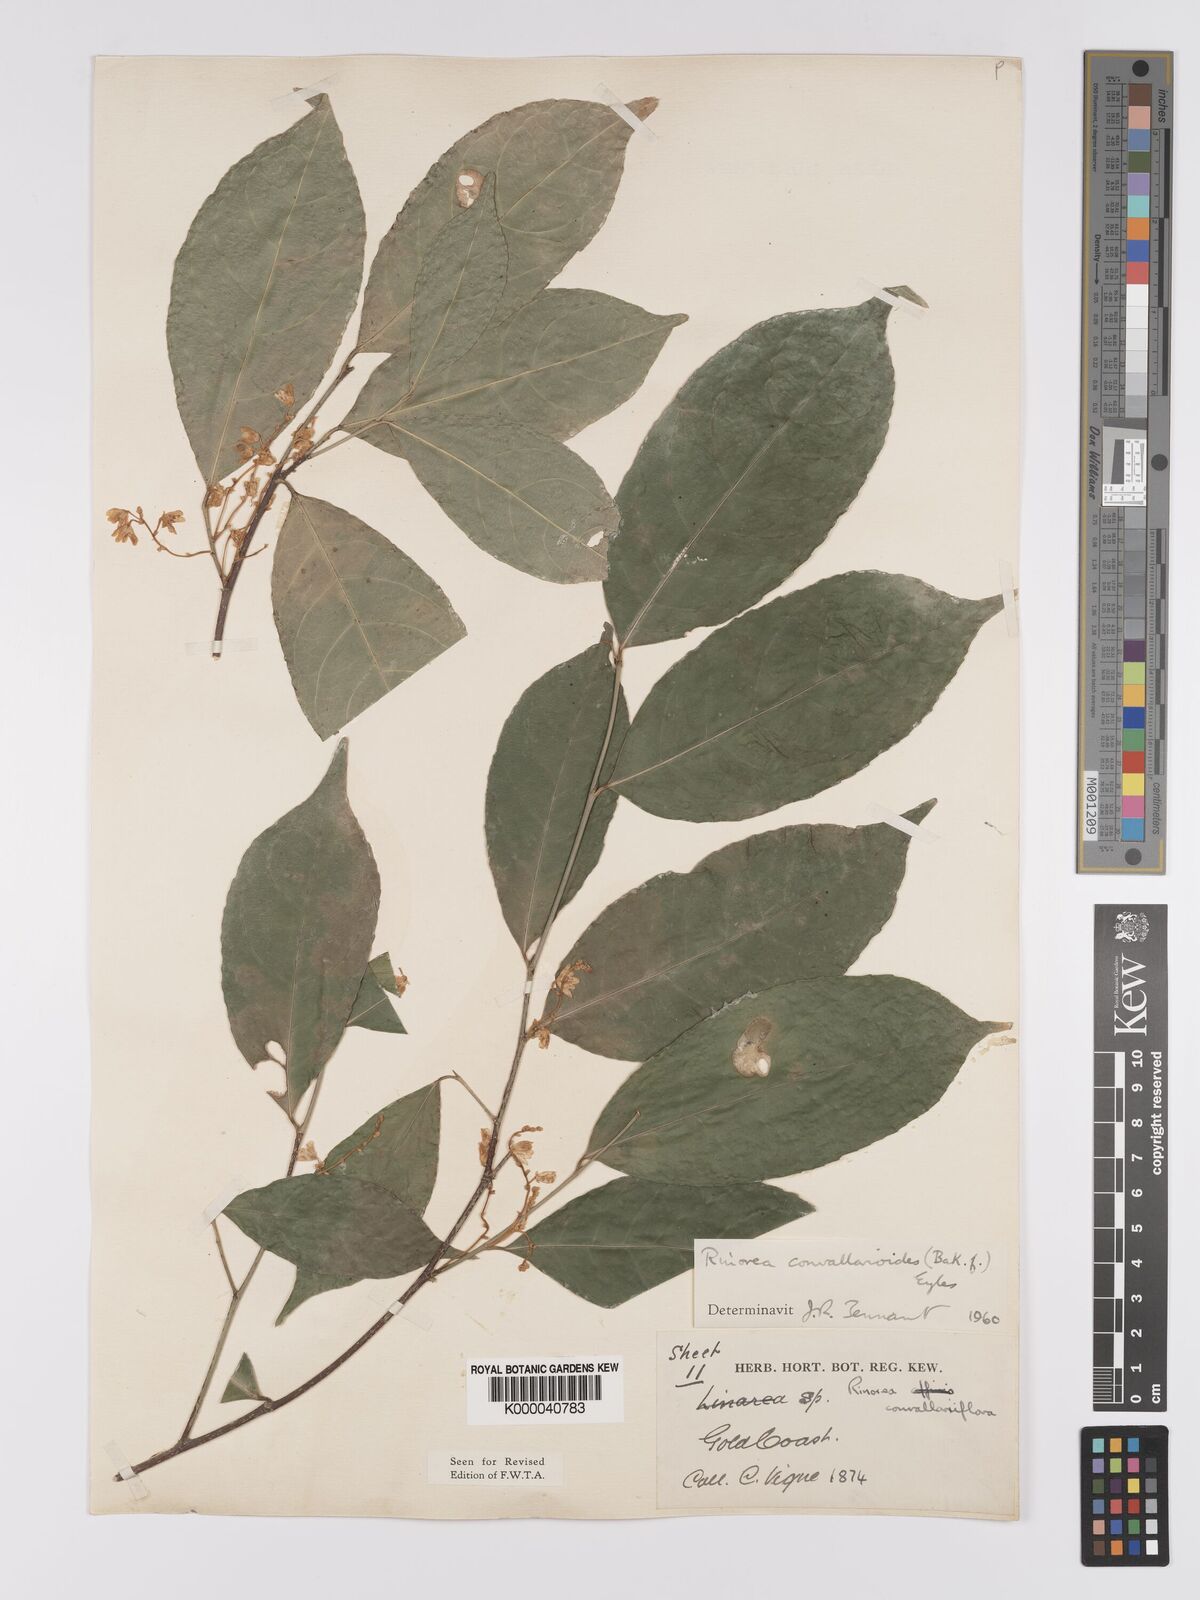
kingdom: Plantae
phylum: Tracheophyta
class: Magnoliopsida
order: Malpighiales
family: Violaceae
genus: Rinorea
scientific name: Rinorea convallarioides
